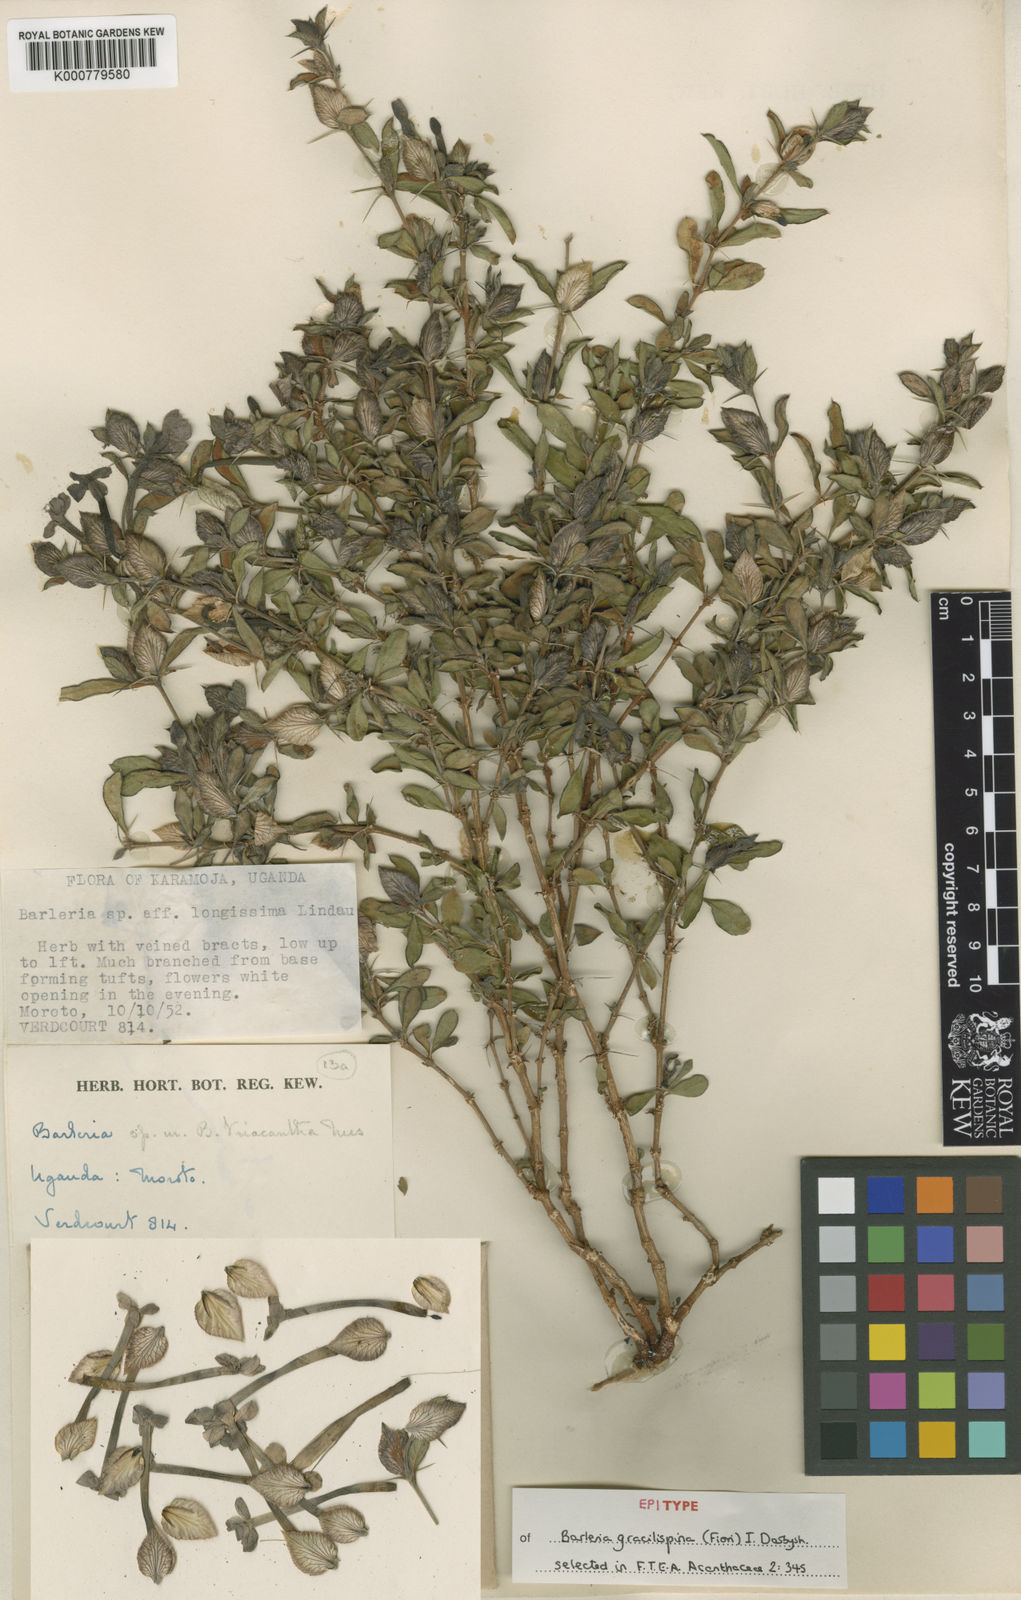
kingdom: Plantae
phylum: Tracheophyta
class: Magnoliopsida
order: Lamiales
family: Acanthaceae
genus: Barleria
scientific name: Barleria gracilispina
